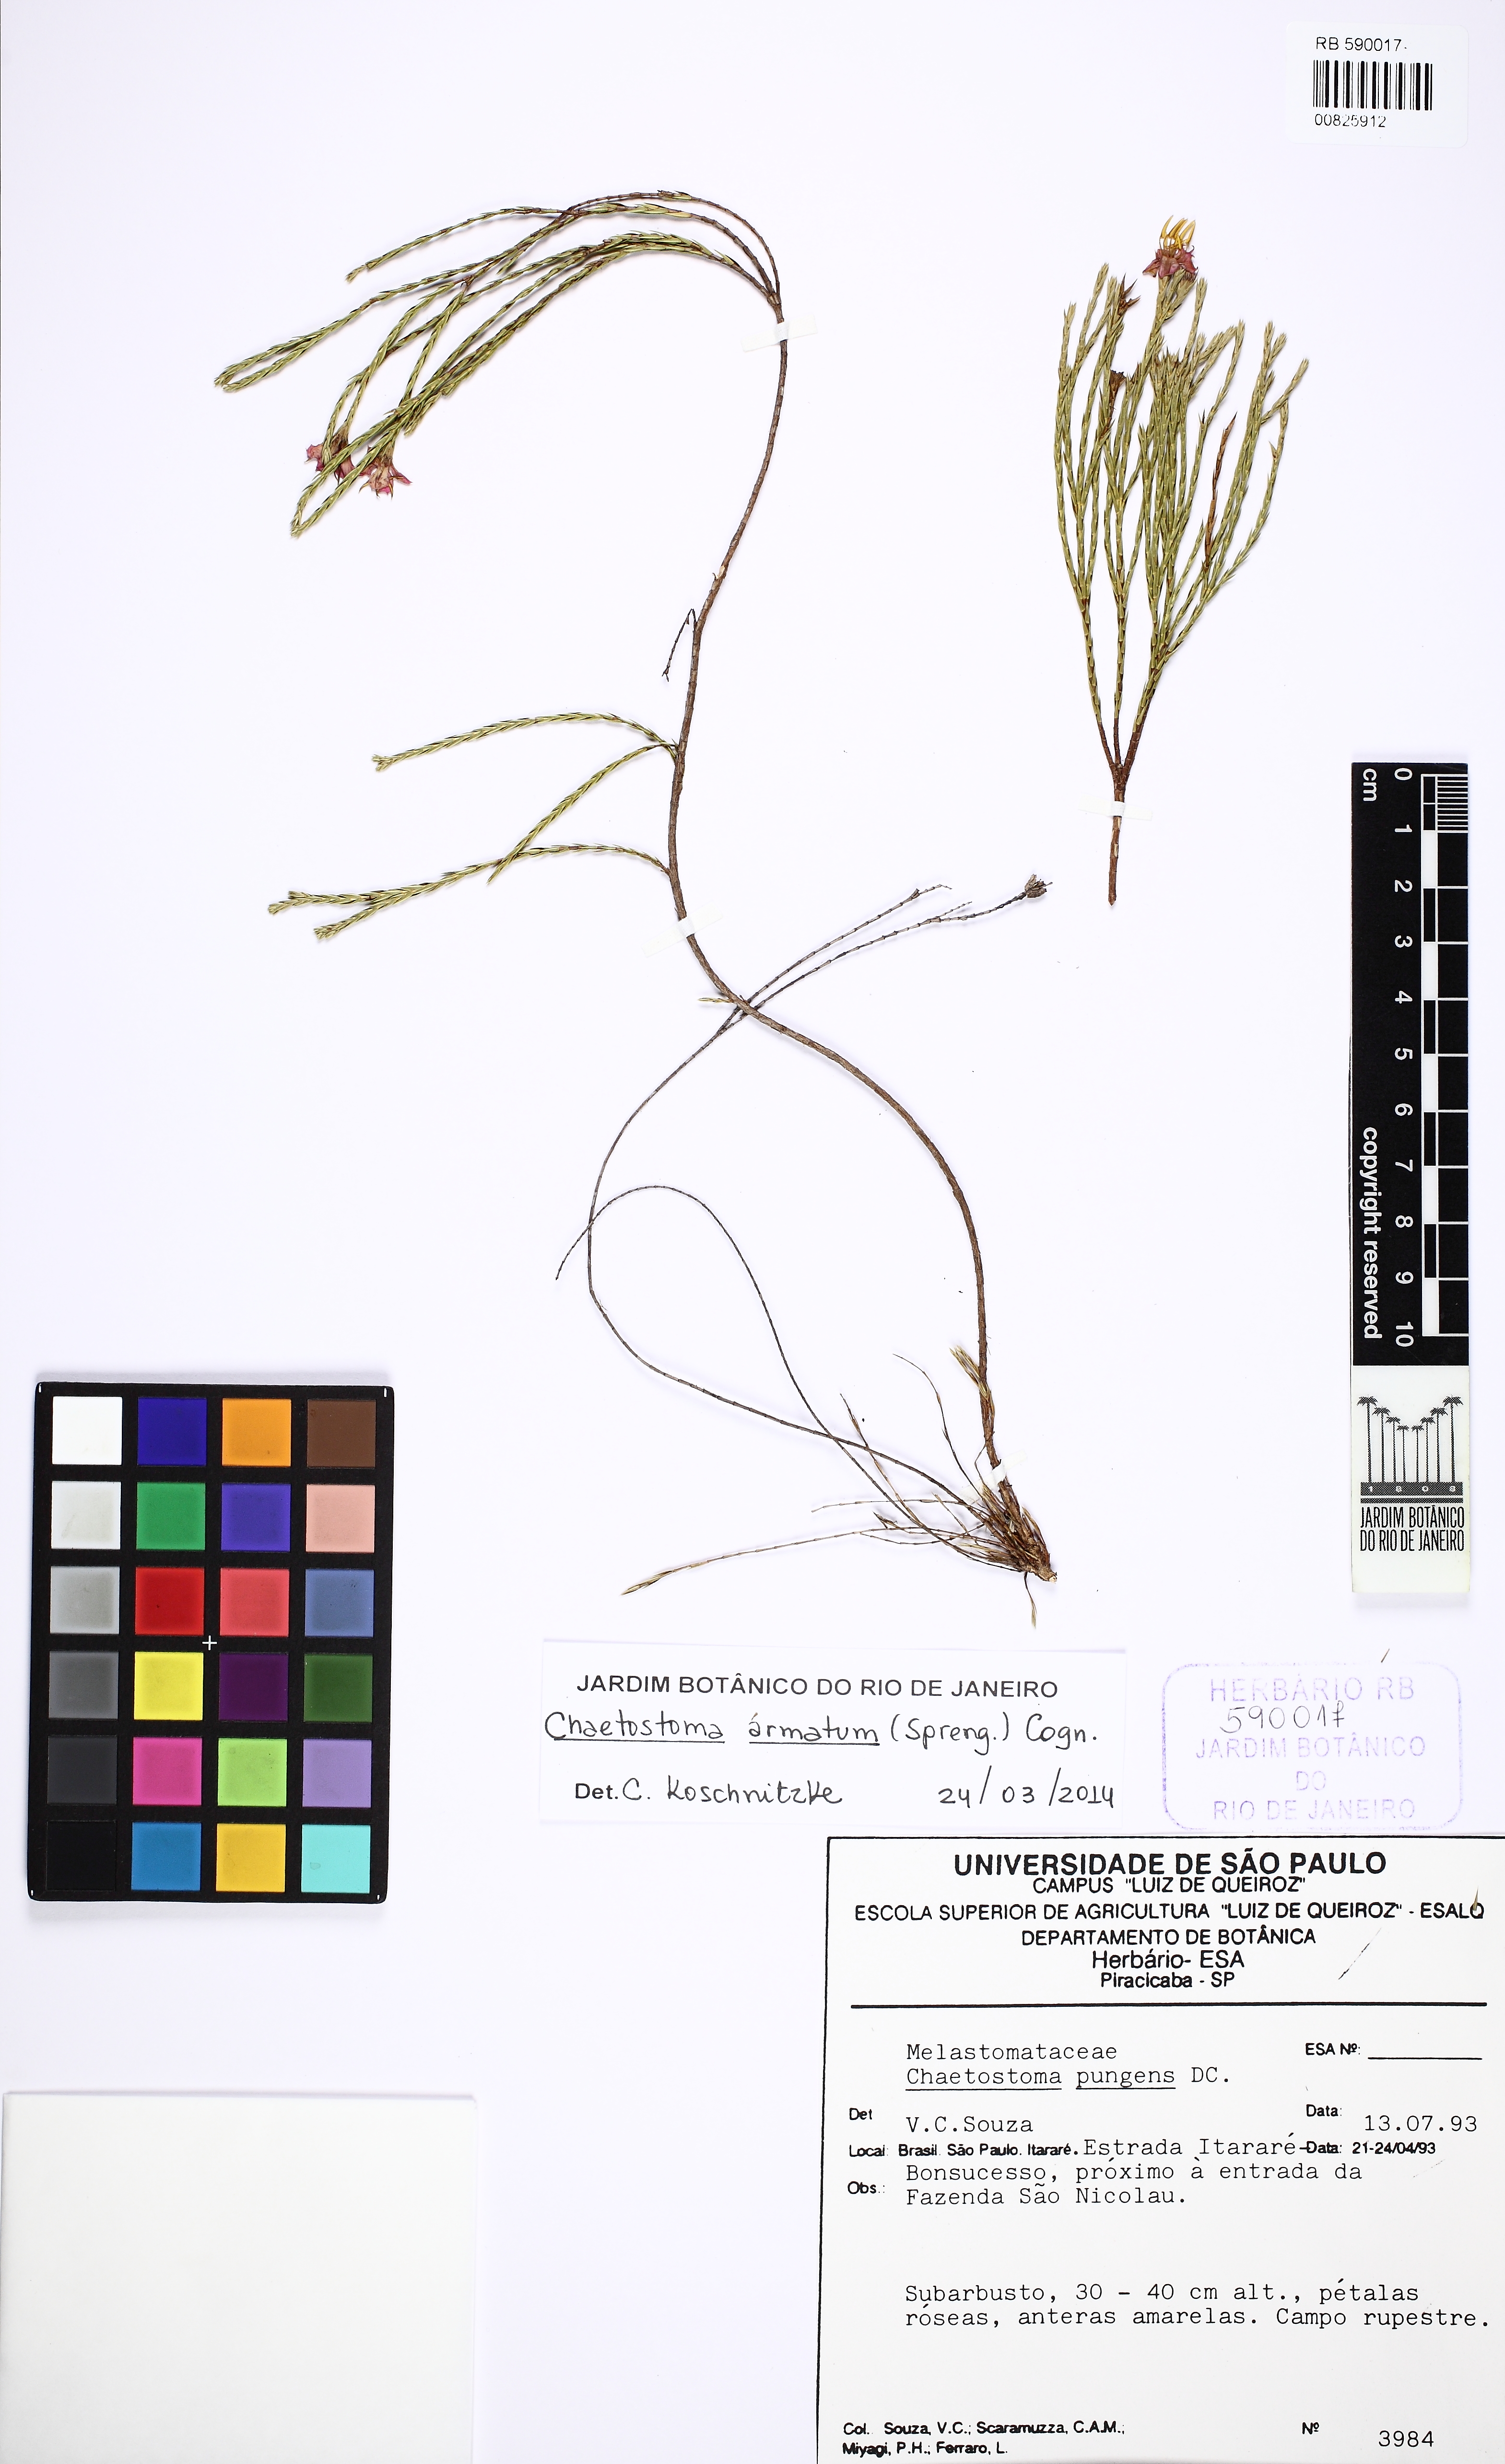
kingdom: Plantae
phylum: Tracheophyta
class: Magnoliopsida
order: Myrtales
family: Melastomataceae
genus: Microlicia
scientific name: Microlicia armata
